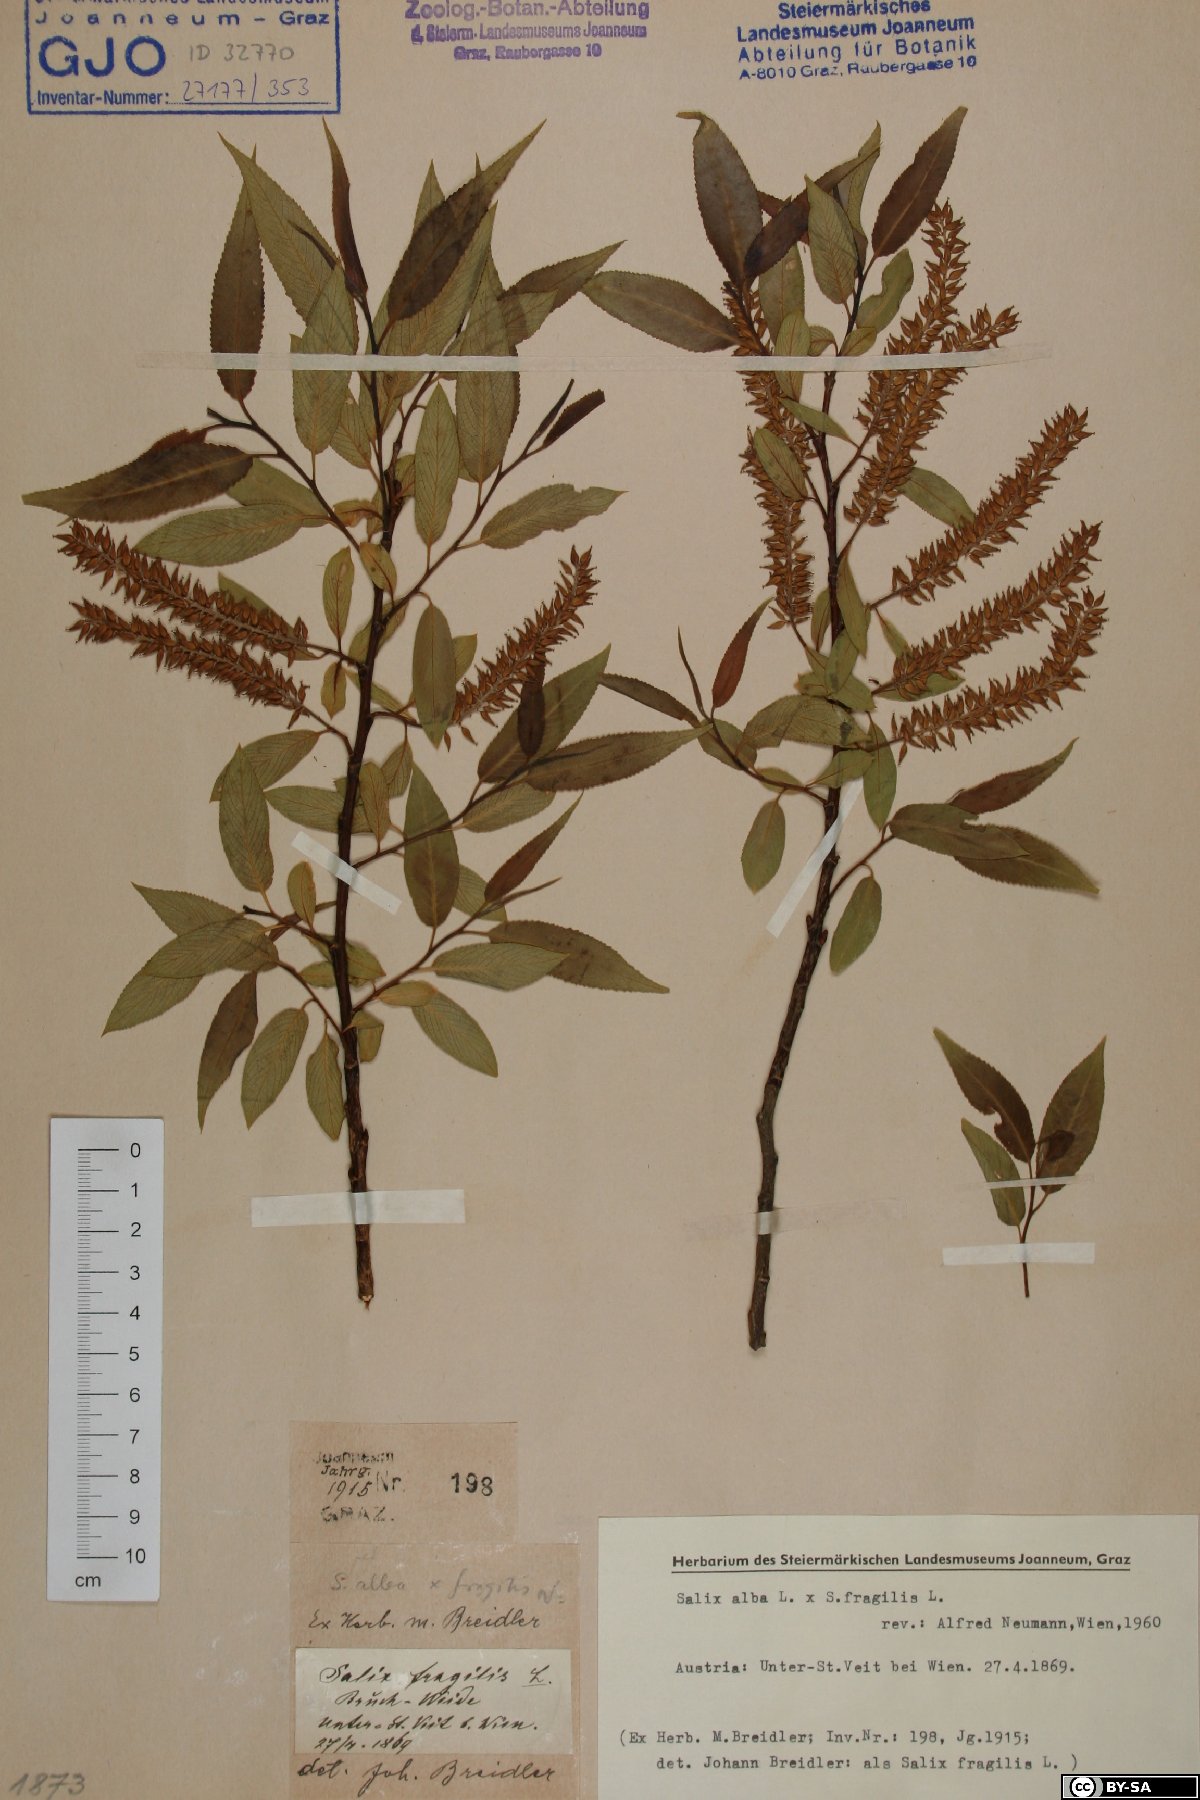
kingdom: Plantae
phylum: Tracheophyta
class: Magnoliopsida
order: Malpighiales
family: Salicaceae
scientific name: Salicaceae
